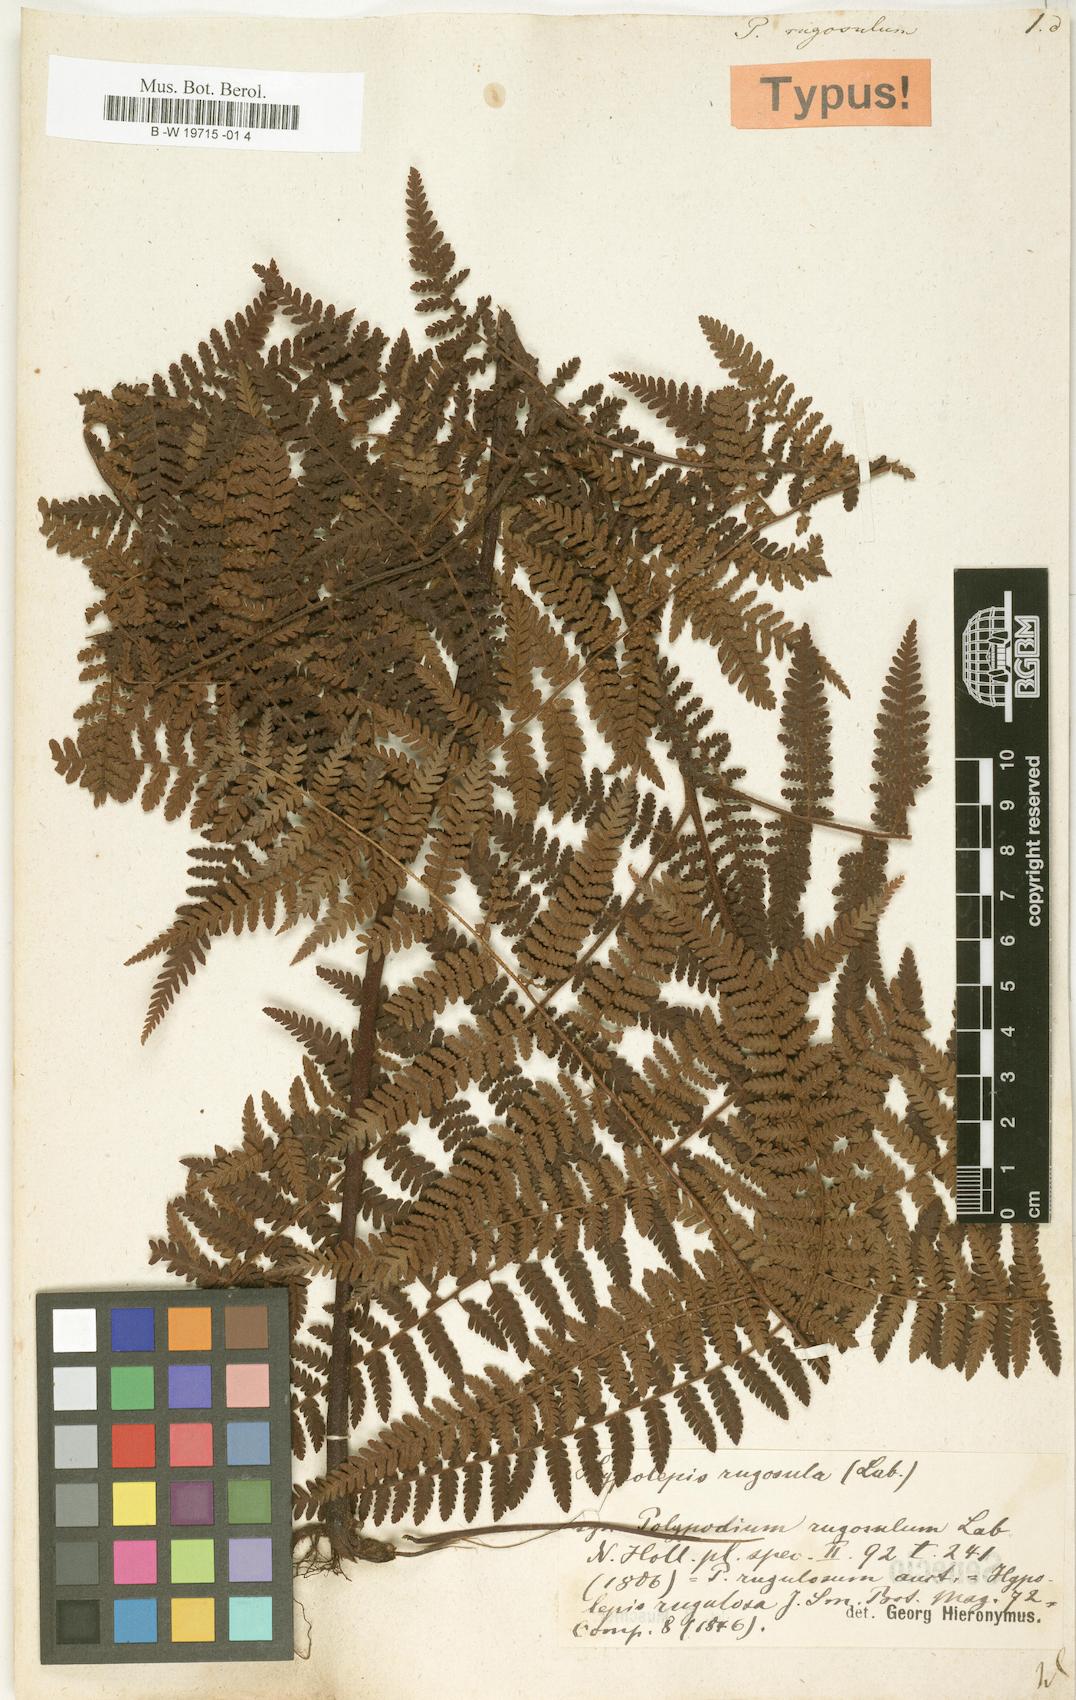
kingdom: Plantae
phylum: Tracheophyta
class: Polypodiopsida
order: Polypodiales
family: Dennstaedtiaceae
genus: Hypolepis
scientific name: Hypolepis rugosula
